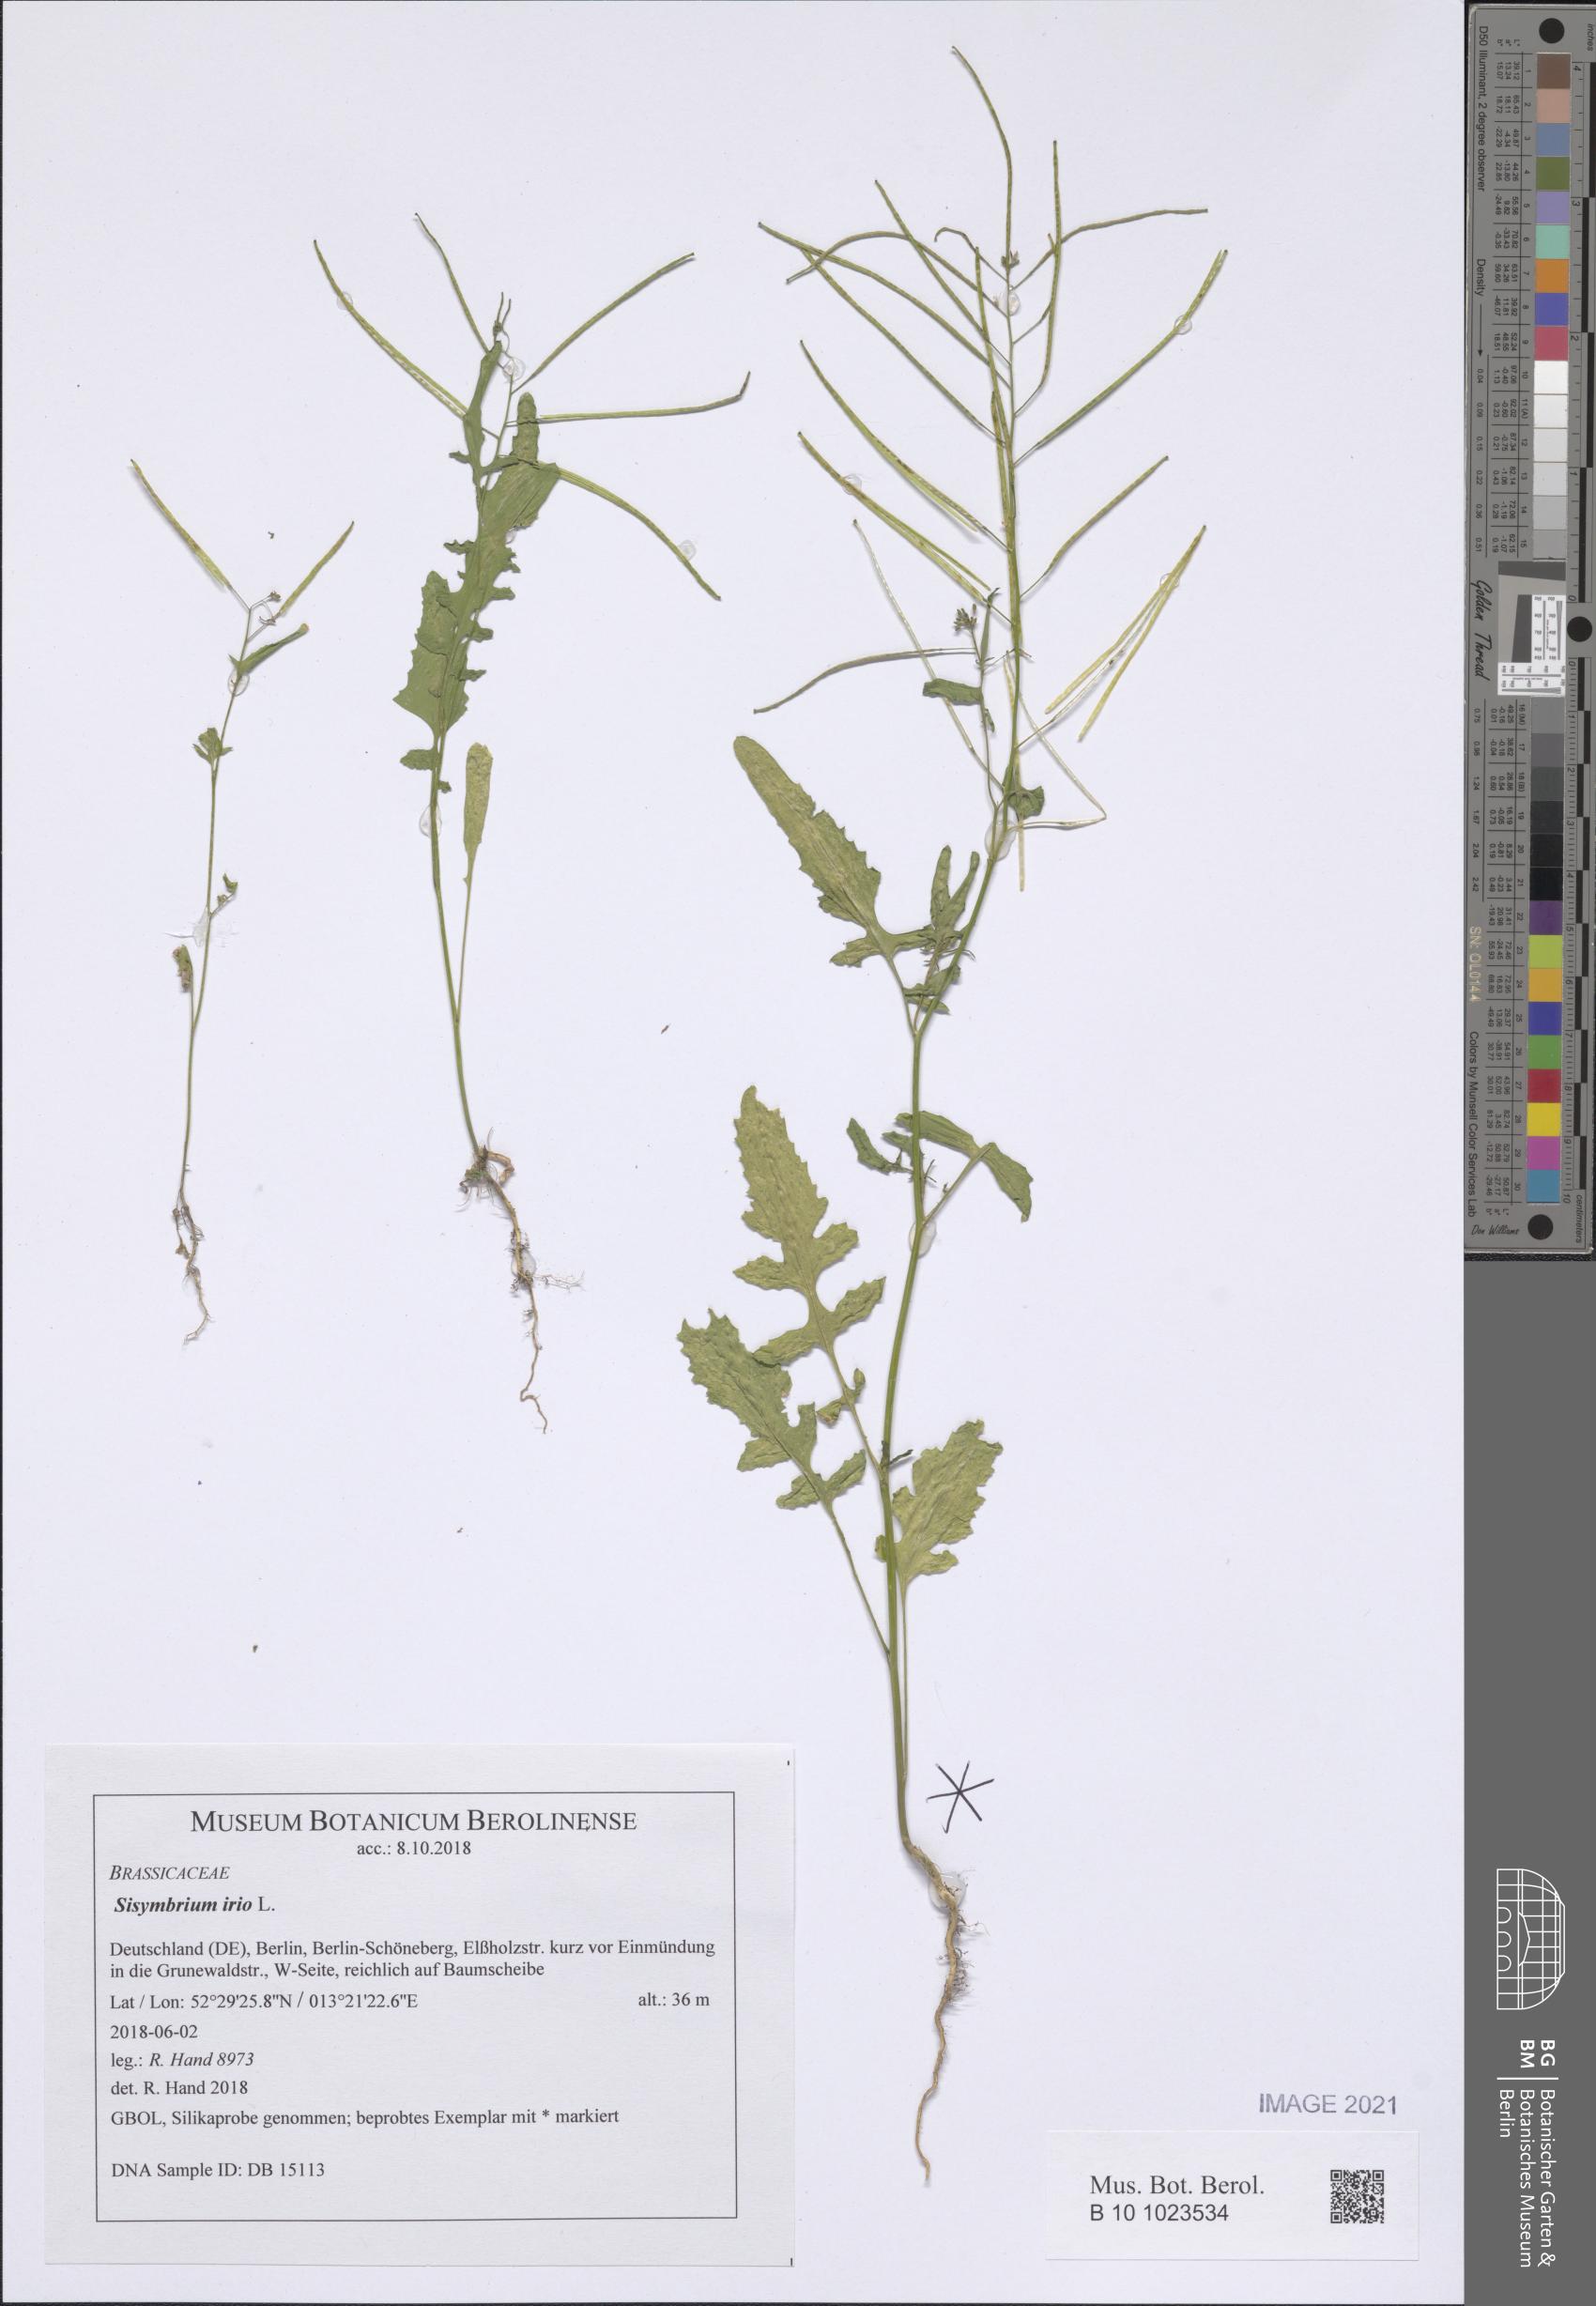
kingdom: Plantae
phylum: Tracheophyta
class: Magnoliopsida
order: Brassicales
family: Brassicaceae
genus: Sisymbrium
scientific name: Sisymbrium irio
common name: London rocket
